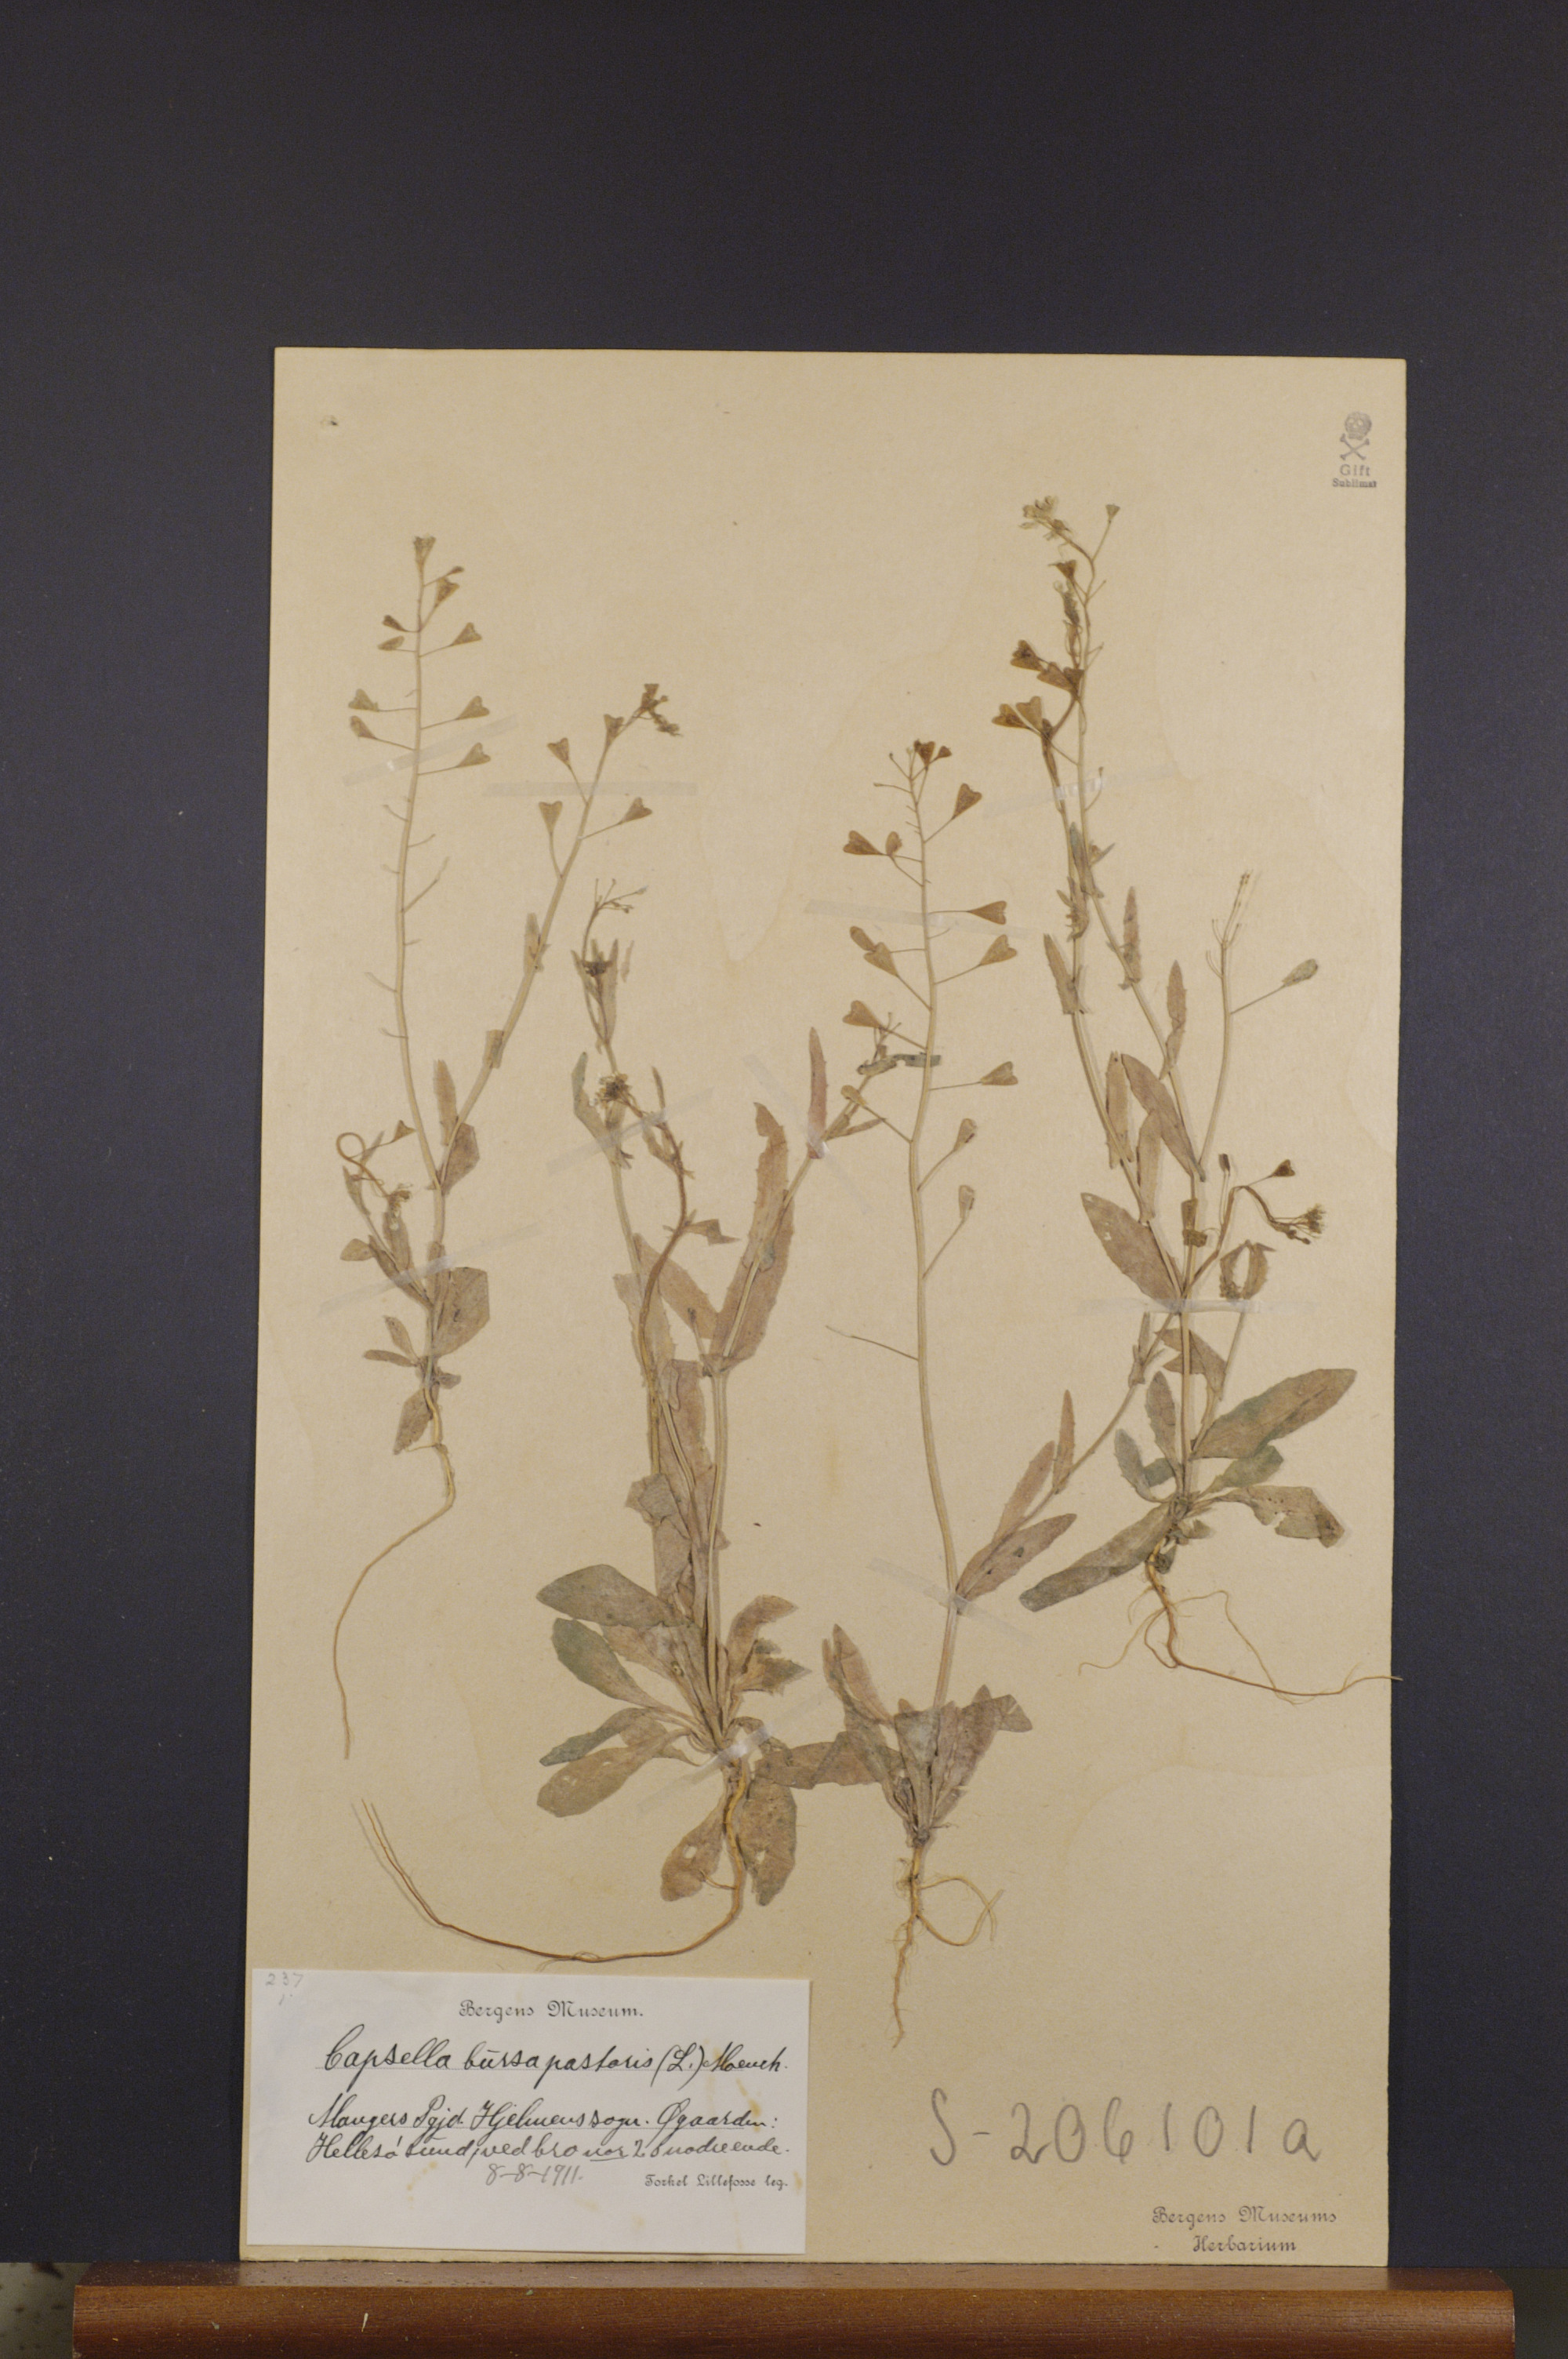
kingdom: Plantae
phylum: Tracheophyta
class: Magnoliopsida
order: Brassicales
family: Brassicaceae
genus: Capsella
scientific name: Capsella bursa-pastoris
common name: Shepherd's purse
